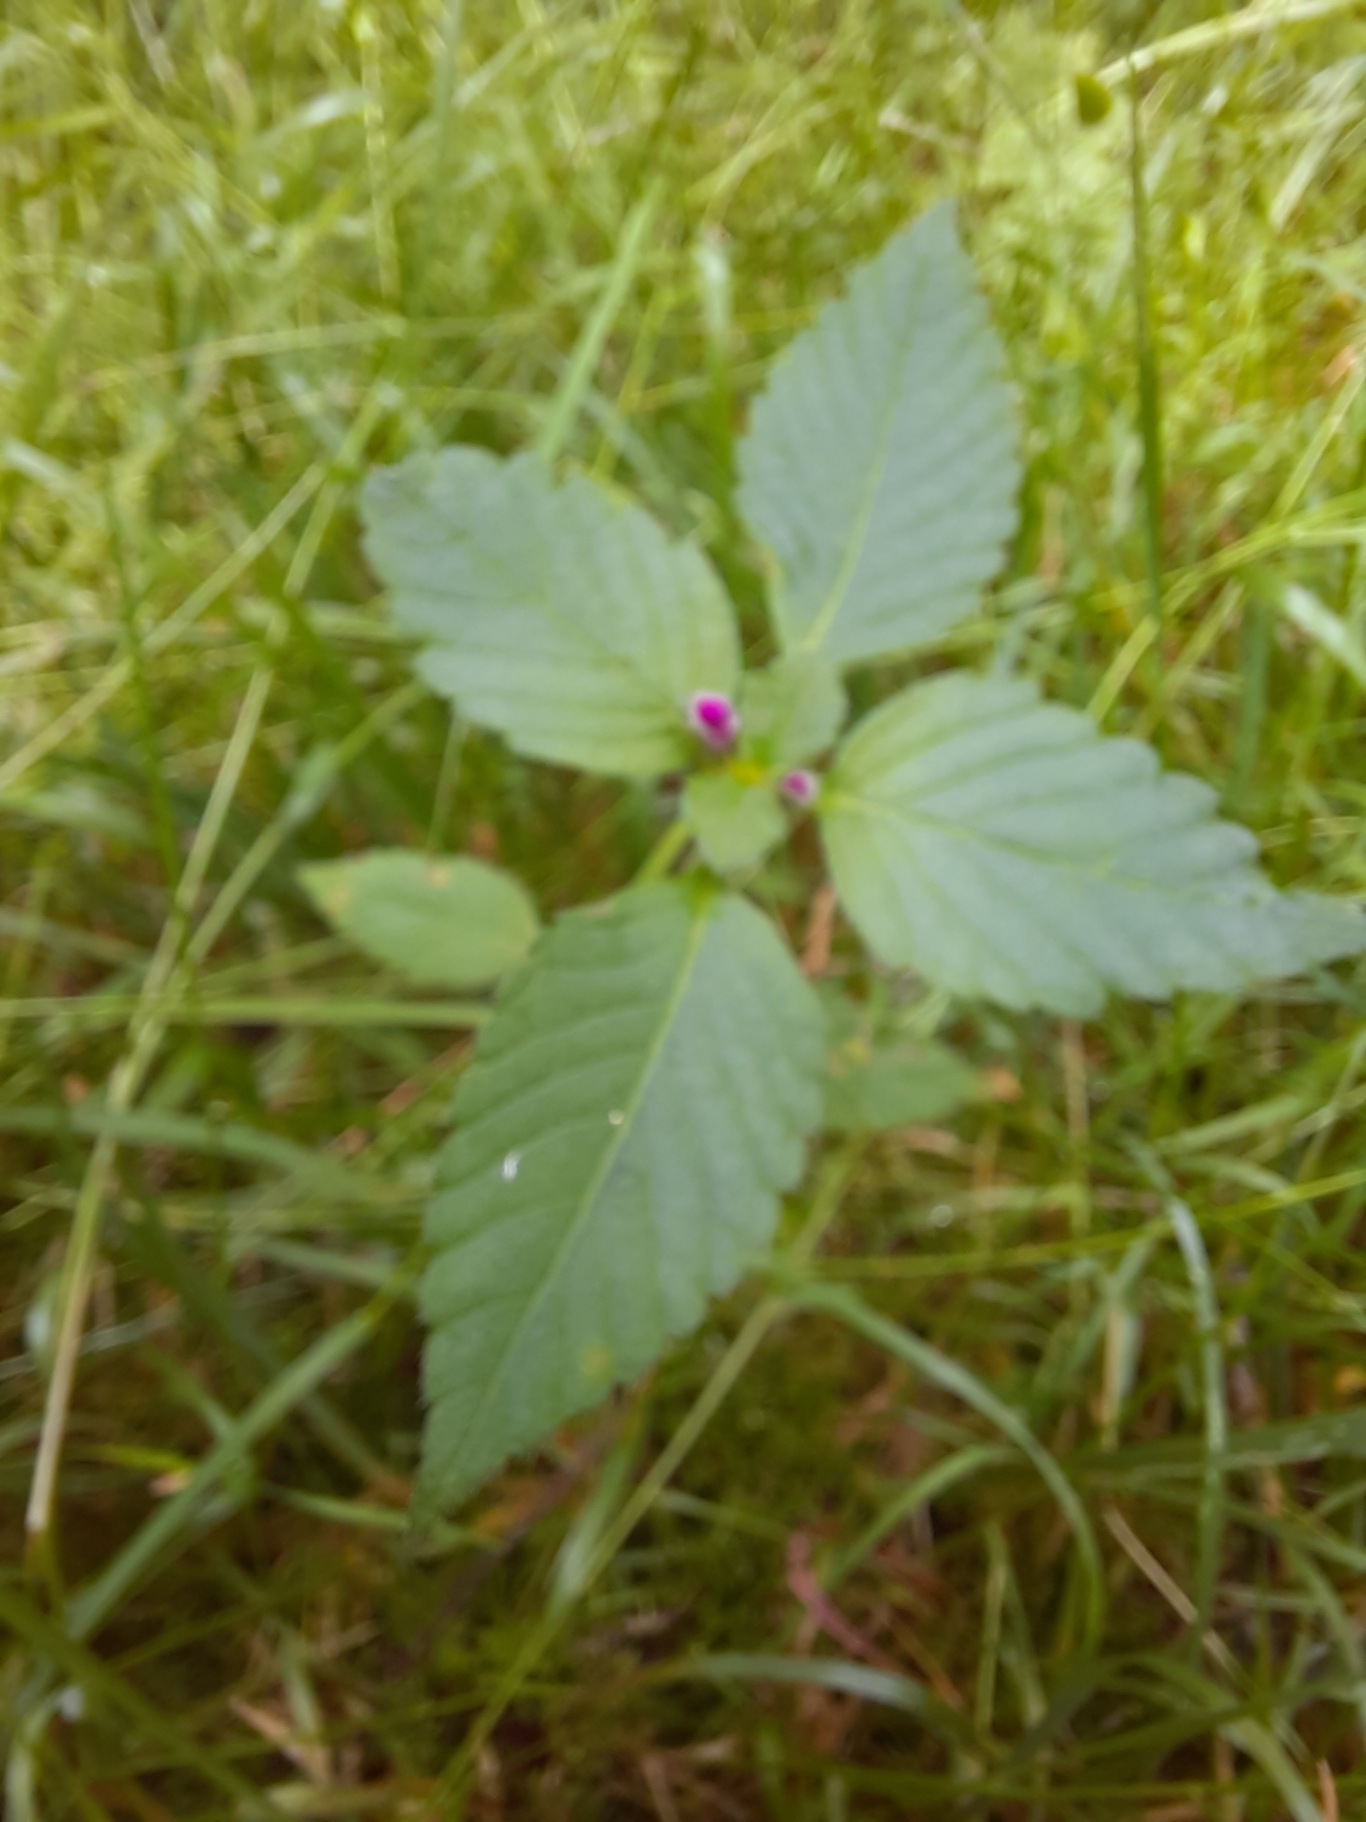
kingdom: Plantae
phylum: Tracheophyta
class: Magnoliopsida
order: Lamiales
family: Lamiaceae
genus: Galeopsis
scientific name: Galeopsis
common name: Hanekroslægten
